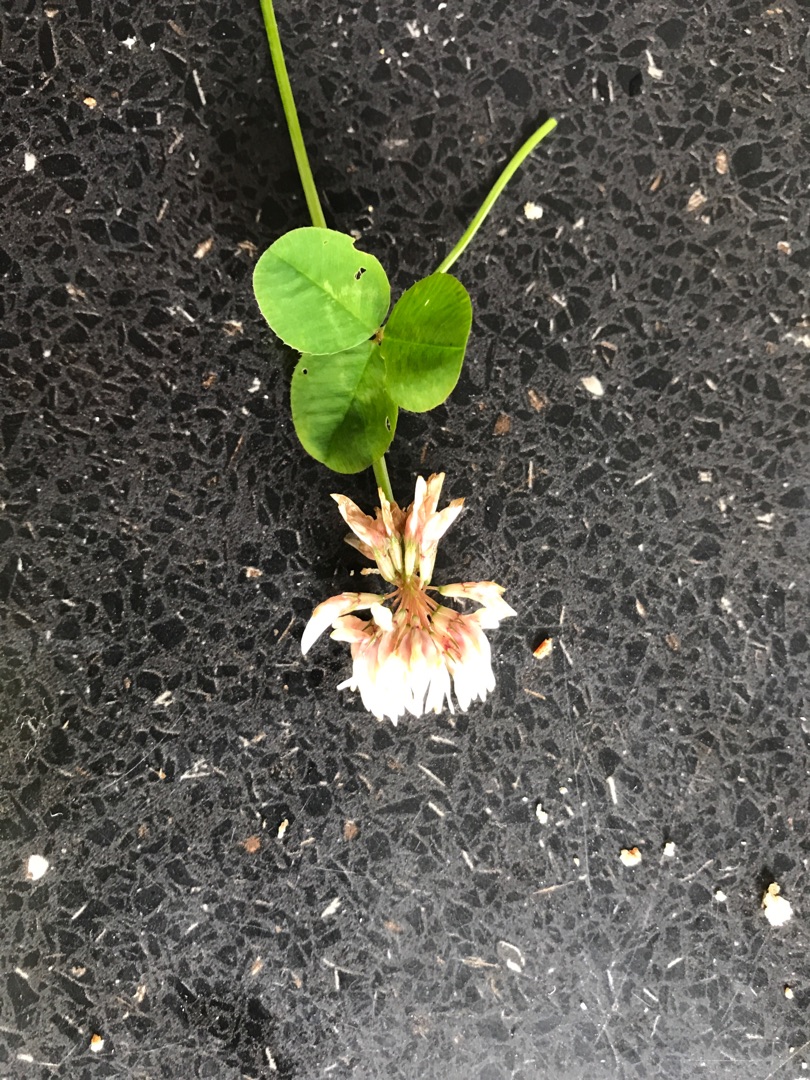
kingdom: Plantae
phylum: Tracheophyta
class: Magnoliopsida
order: Fabales
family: Fabaceae
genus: Trifolium
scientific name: Trifolium repens
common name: Hvid-kløver
